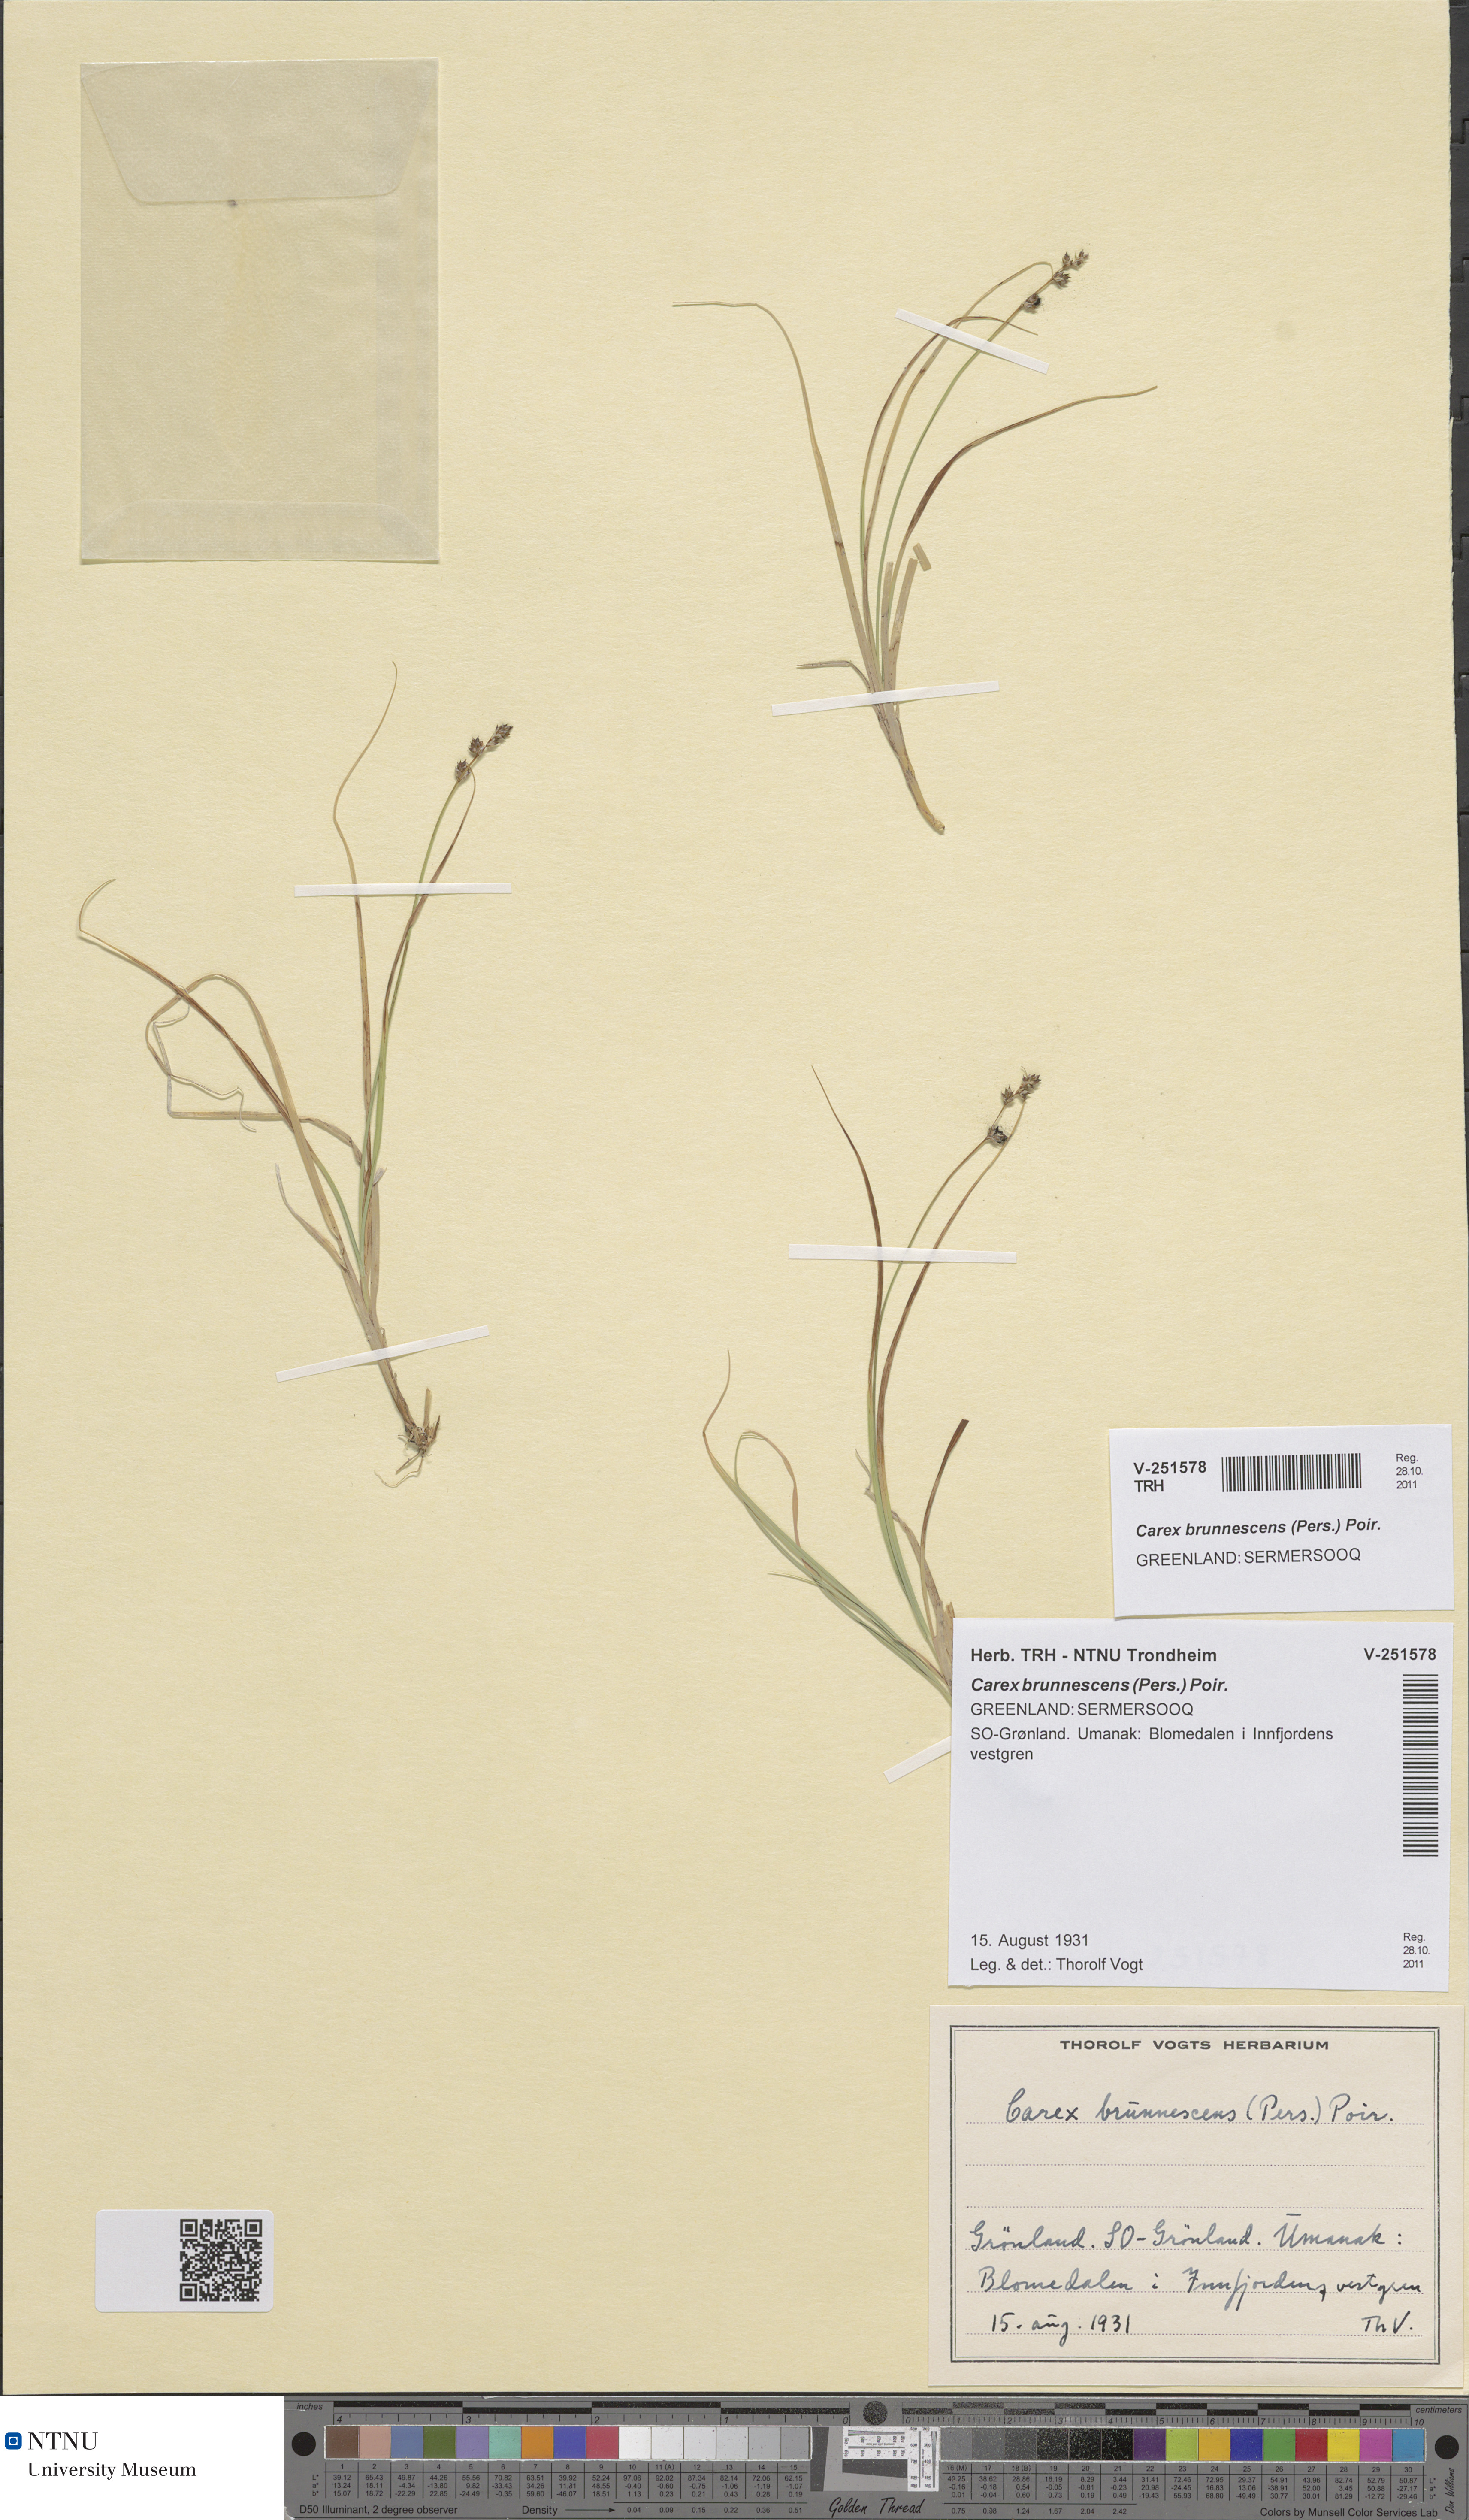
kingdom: Plantae
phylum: Tracheophyta
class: Liliopsida
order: Poales
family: Cyperaceae
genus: Carex
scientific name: Carex brunnescens
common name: Brown sedge
